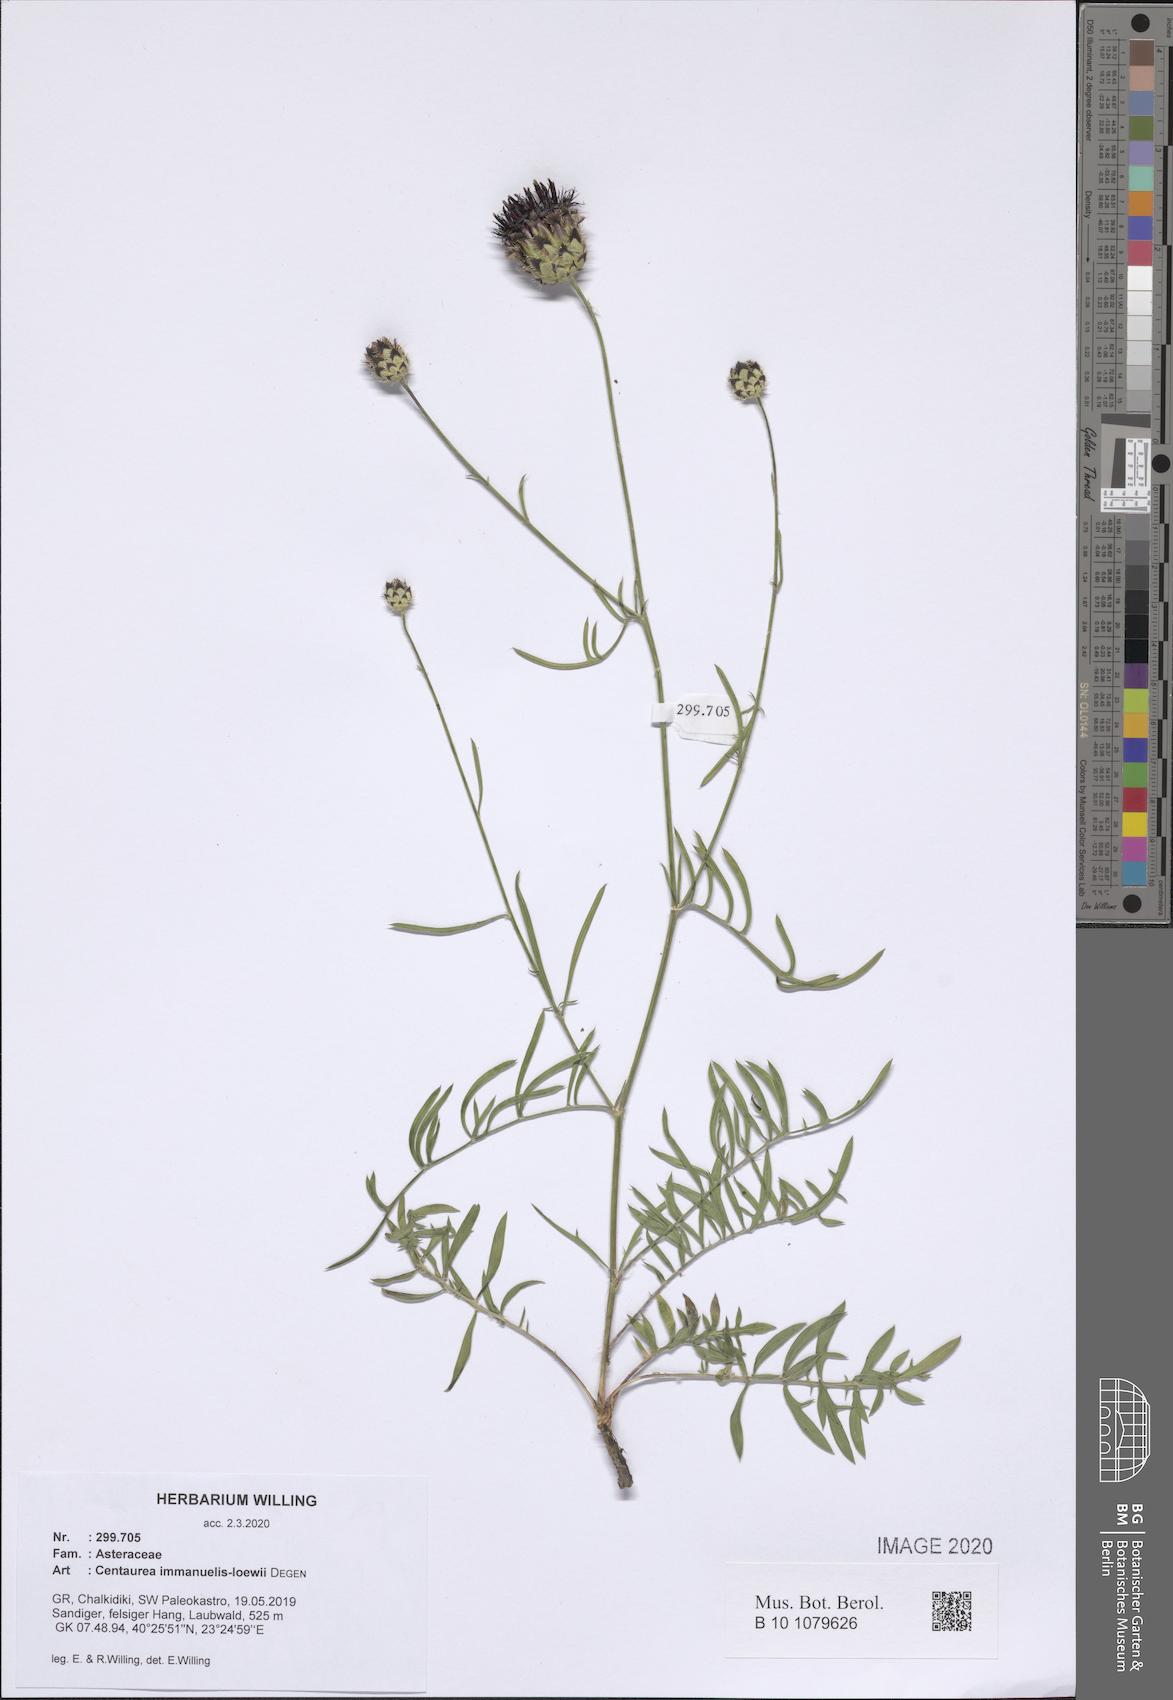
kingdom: Plantae
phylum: Tracheophyta
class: Magnoliopsida
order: Asterales
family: Asteraceae
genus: Centaurea
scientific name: Centaurea immanuelis-loewii
